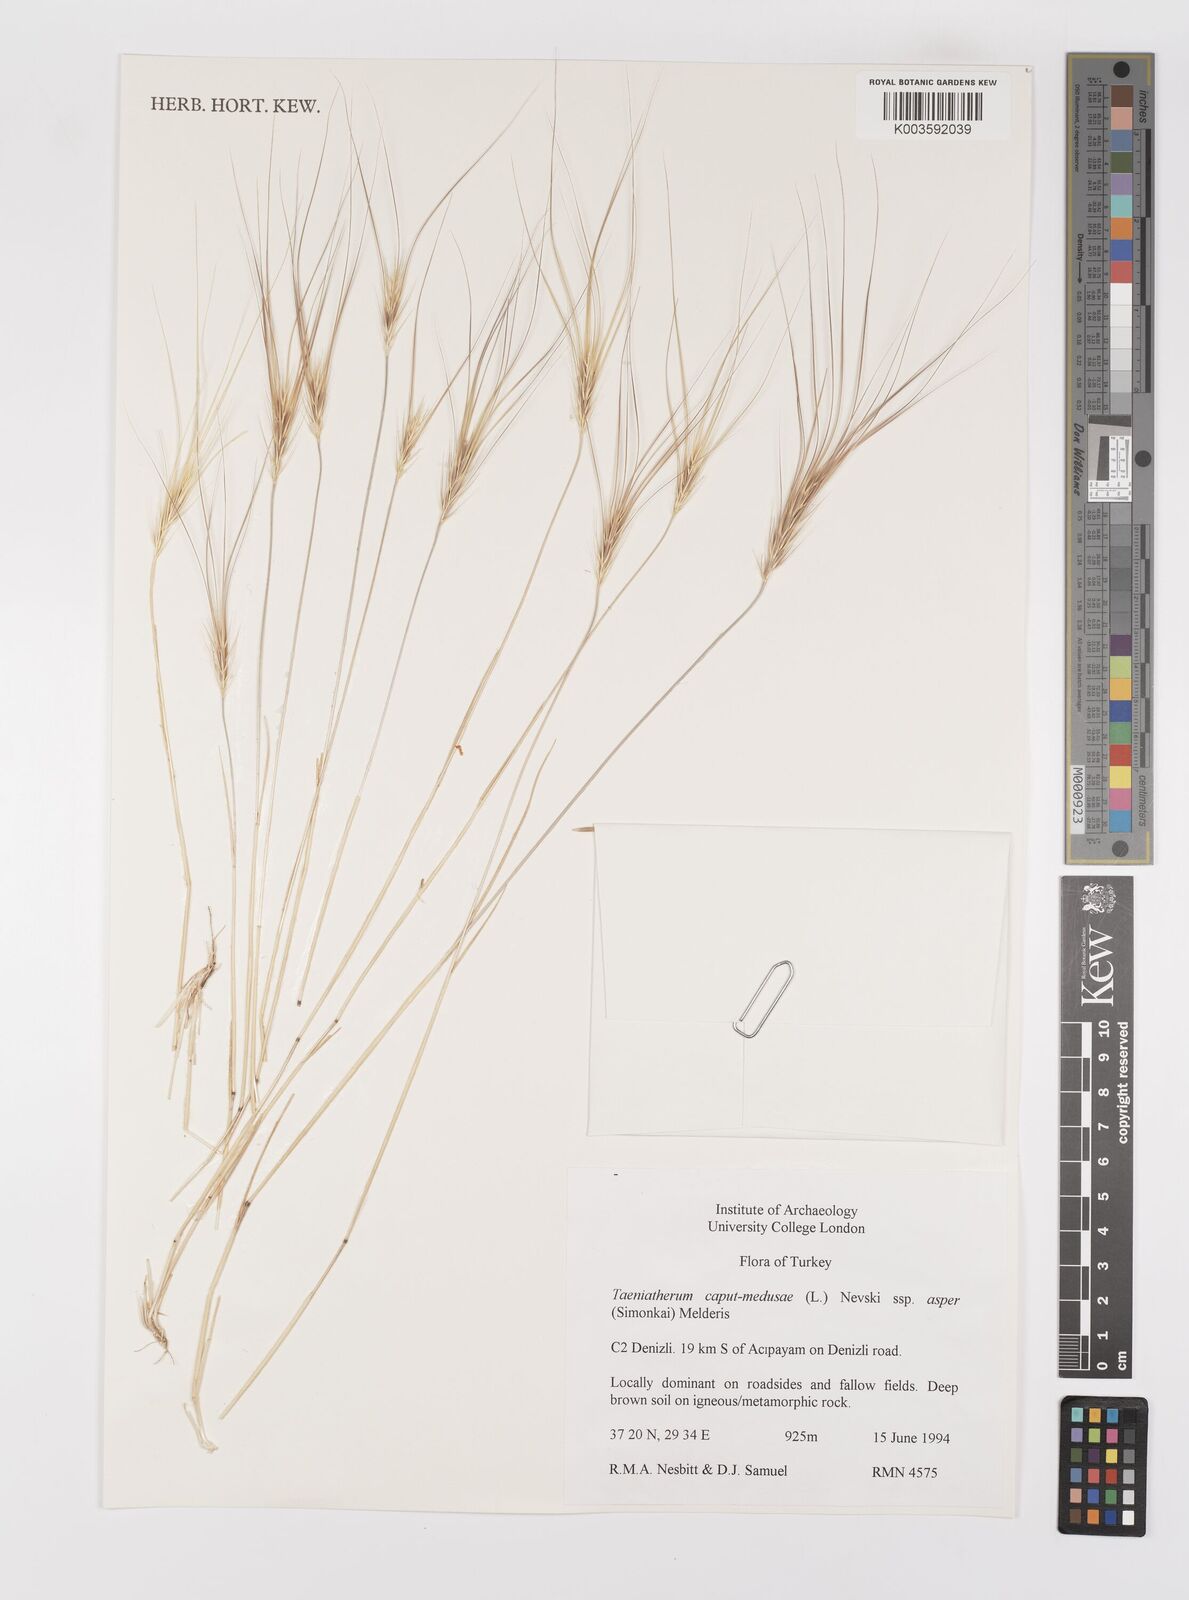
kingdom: Plantae
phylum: Tracheophyta
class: Liliopsida
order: Poales
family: Poaceae
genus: Taeniatherum
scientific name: Taeniatherum caput-medusae
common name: Medusahead
